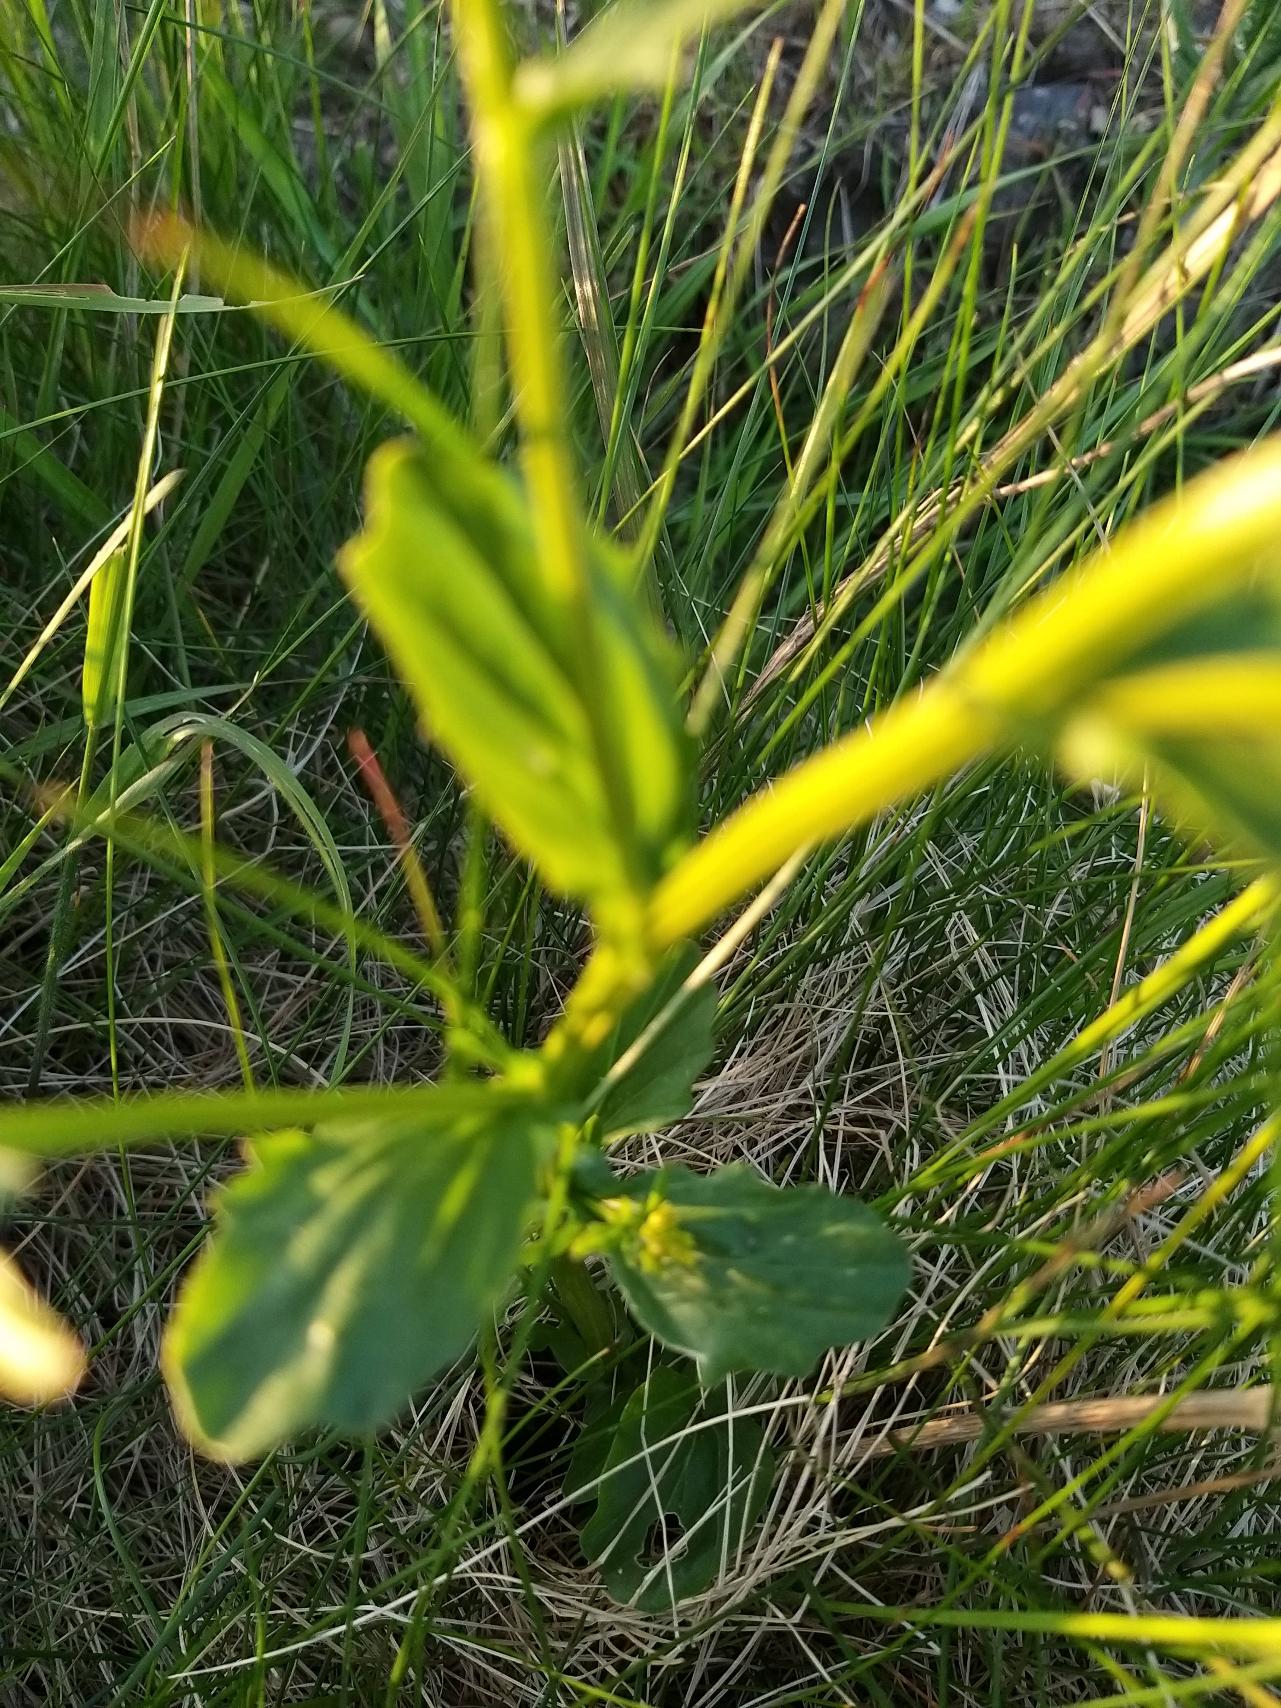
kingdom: Plantae
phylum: Tracheophyta
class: Magnoliopsida
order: Brassicales
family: Brassicaceae
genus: Barbarea
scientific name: Barbarea vulgaris
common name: Udspærret vinterkarse
